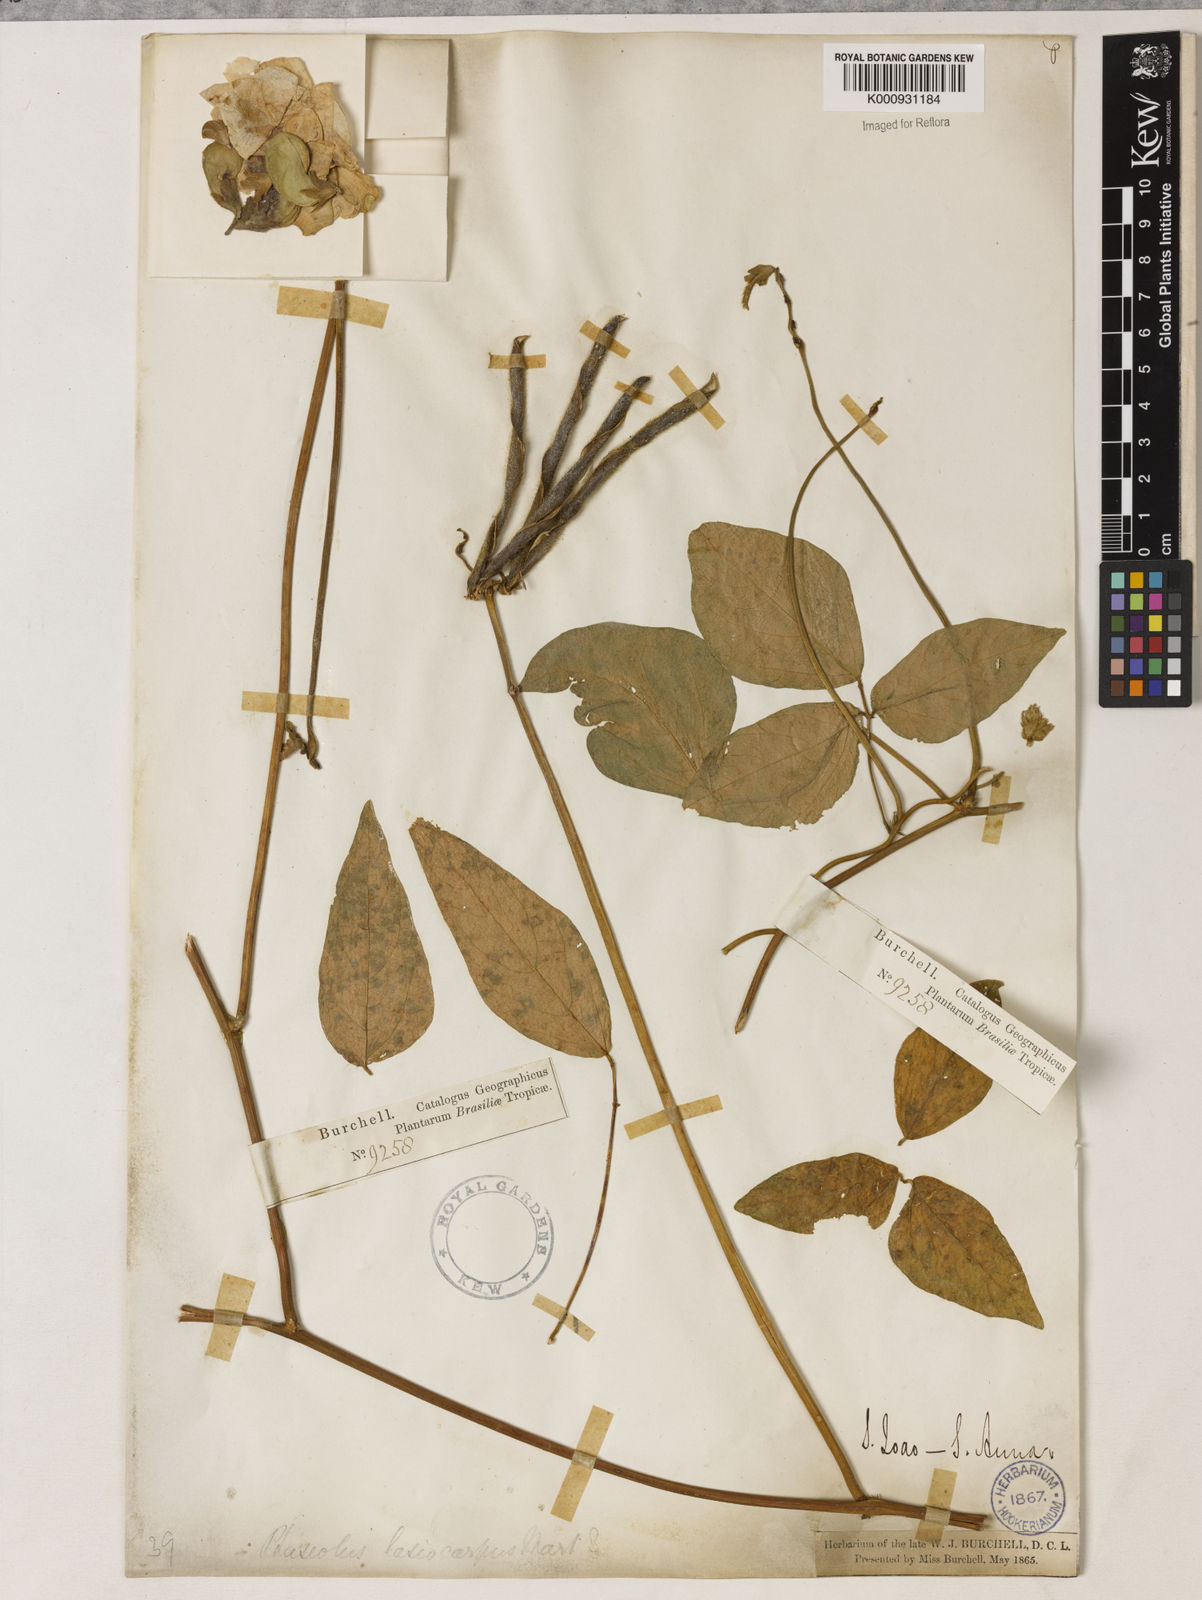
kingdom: Plantae
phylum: Tracheophyta
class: Magnoliopsida
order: Fabales
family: Fabaceae
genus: Vigna
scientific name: Vigna lasiocarpa
